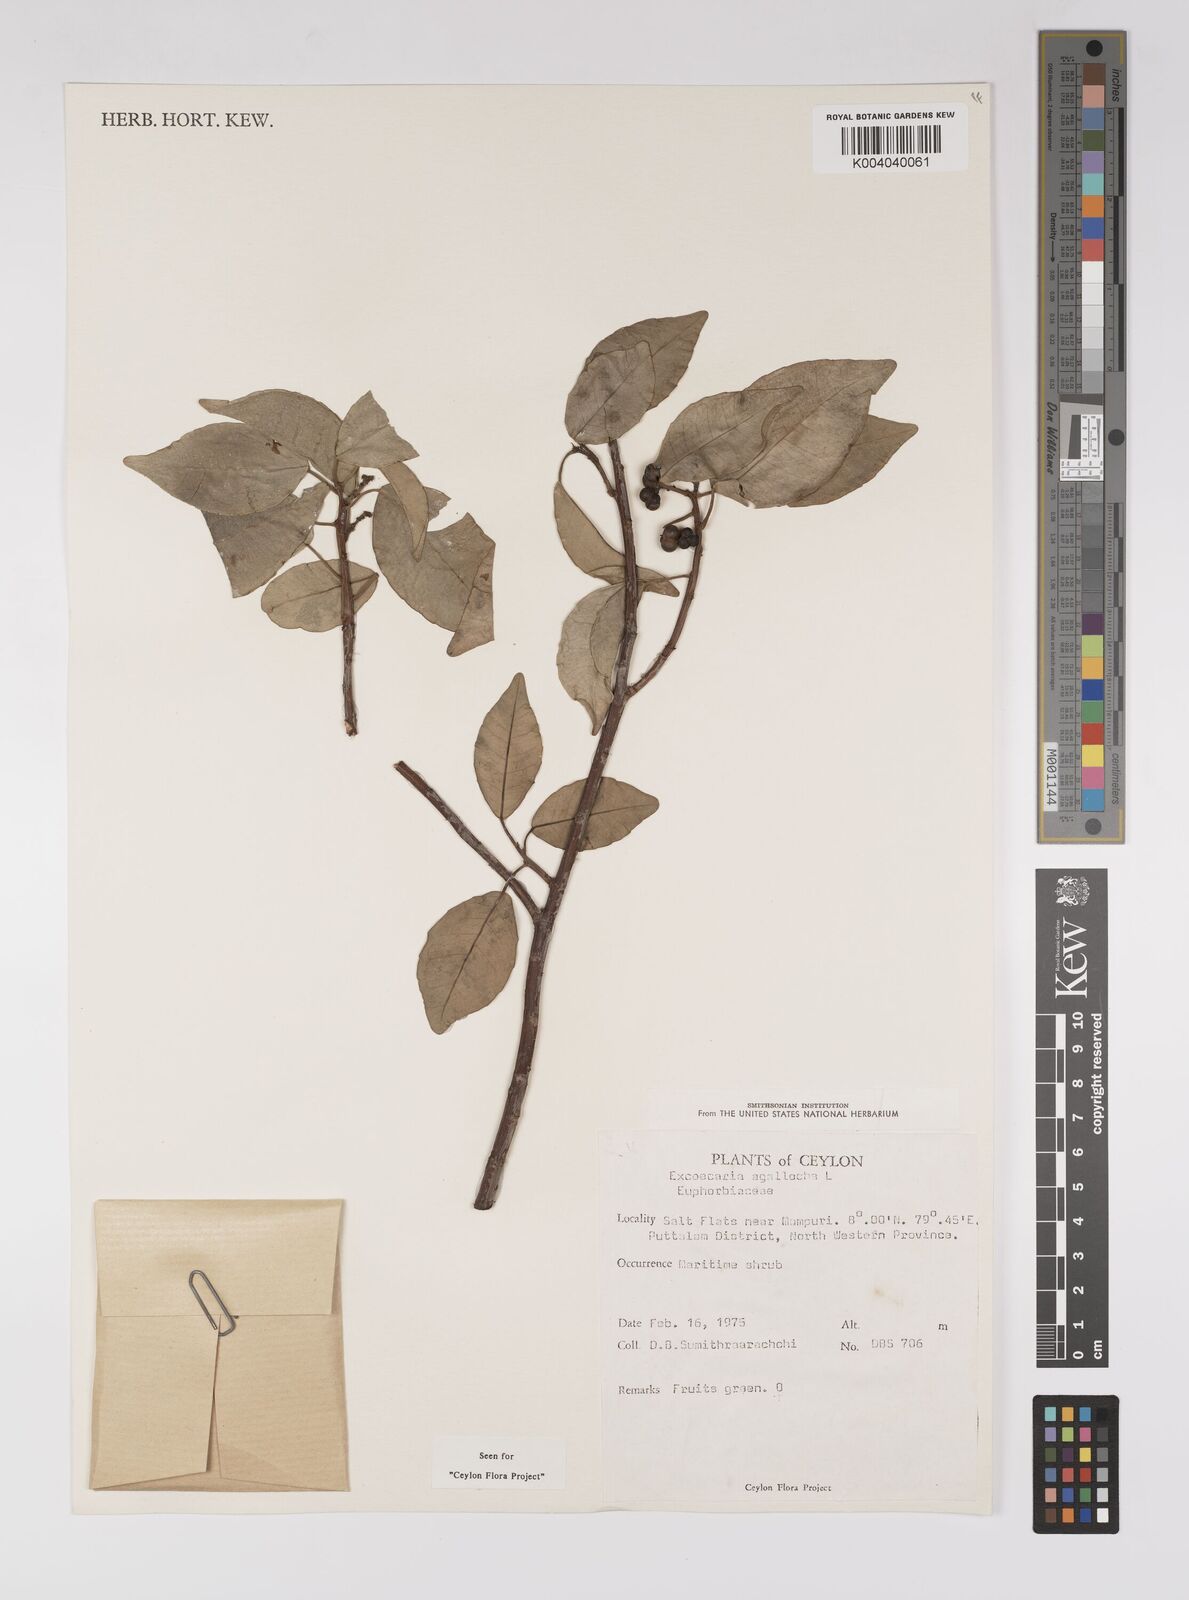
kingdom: Plantae
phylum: Tracheophyta
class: Magnoliopsida
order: Malpighiales
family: Euphorbiaceae
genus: Excoecaria
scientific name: Excoecaria agallocha
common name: River poisontree
